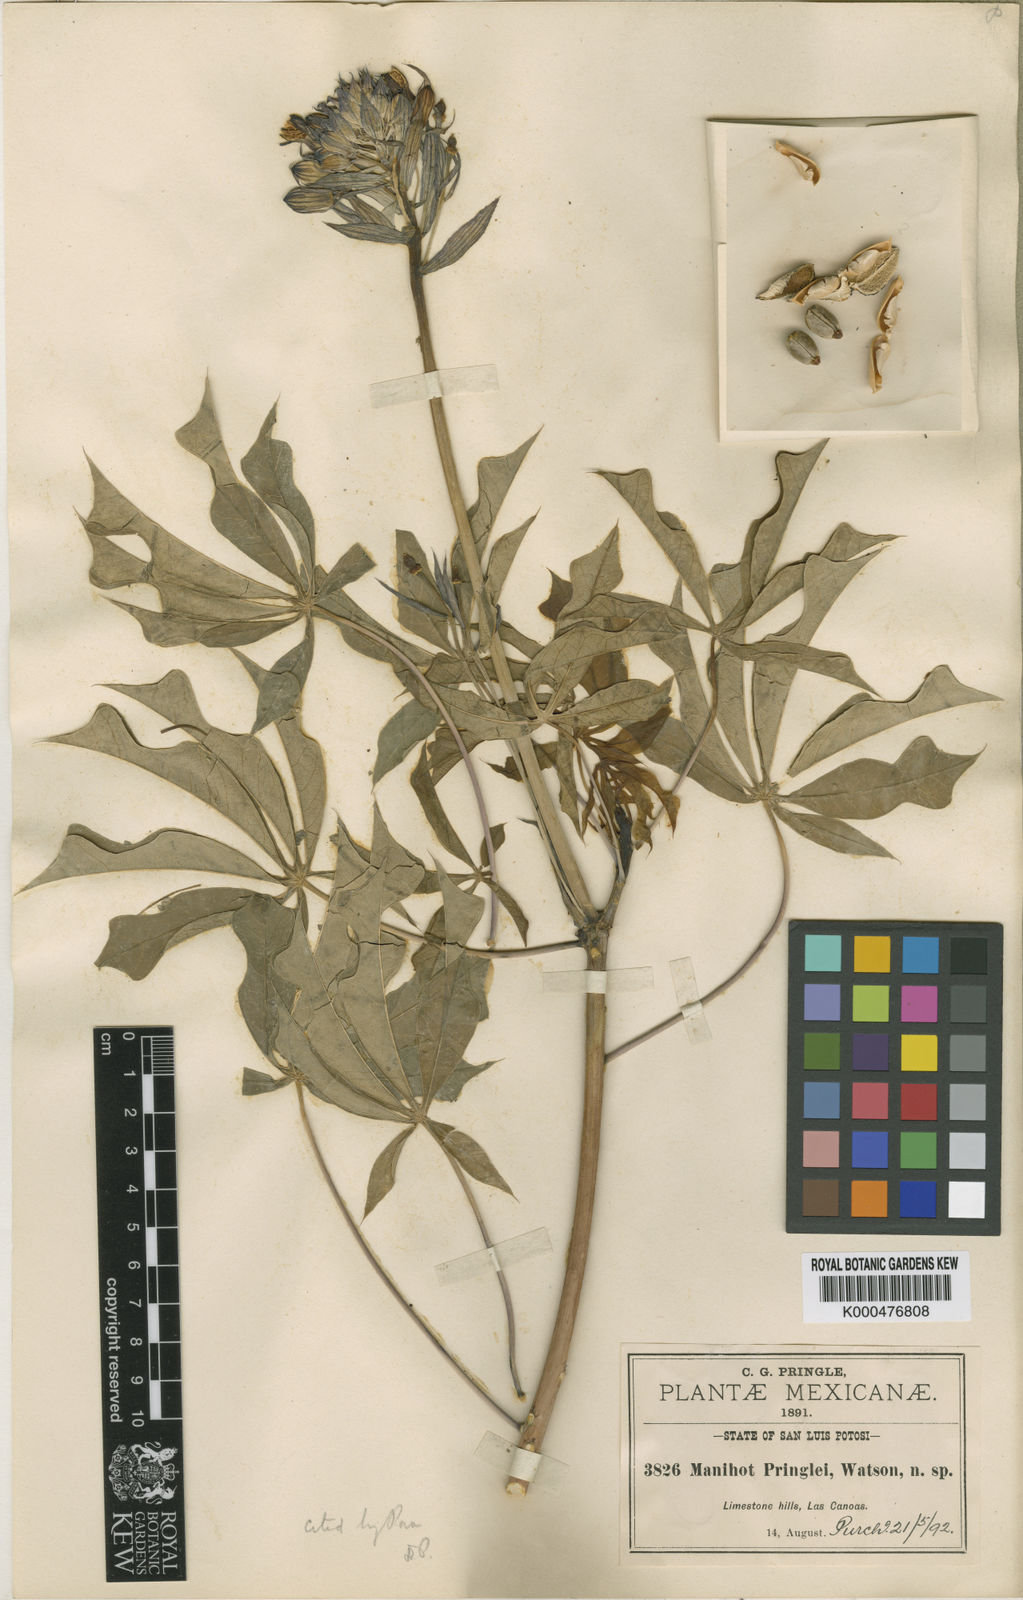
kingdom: Plantae
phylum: Tracheophyta
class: Magnoliopsida
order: Malpighiales
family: Euphorbiaceae
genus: Manihot
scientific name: Manihot pringlei
